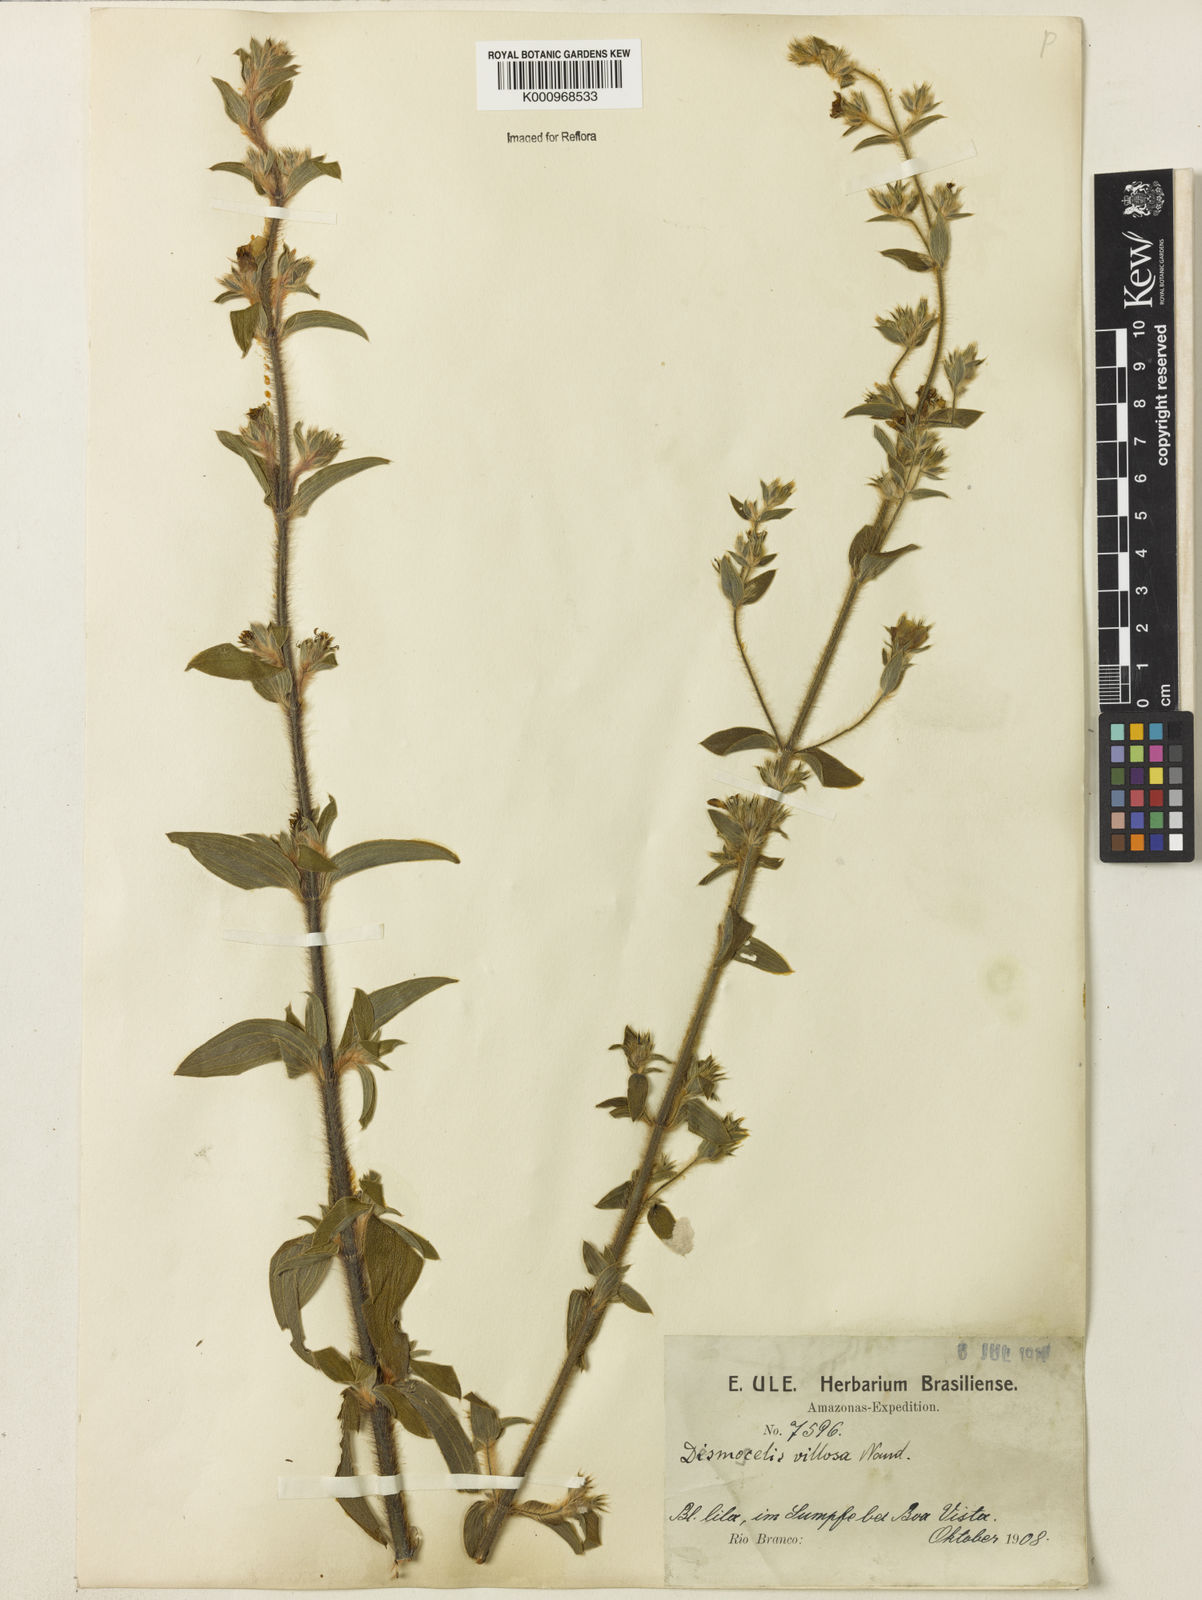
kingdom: Plantae
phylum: Tracheophyta
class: Magnoliopsida
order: Myrtales
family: Melastomataceae
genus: Desmoscelis
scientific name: Desmoscelis villosa
